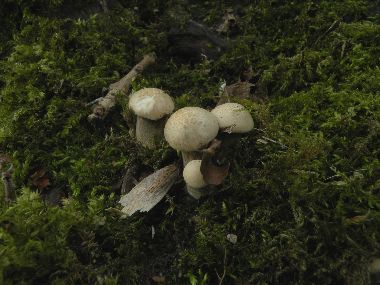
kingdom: Fungi
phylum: Basidiomycota
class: Agaricomycetes
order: Polyporales
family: Polyporaceae
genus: Lentinus
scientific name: Lentinus substrictus
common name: forårs-stilkporesvamp
